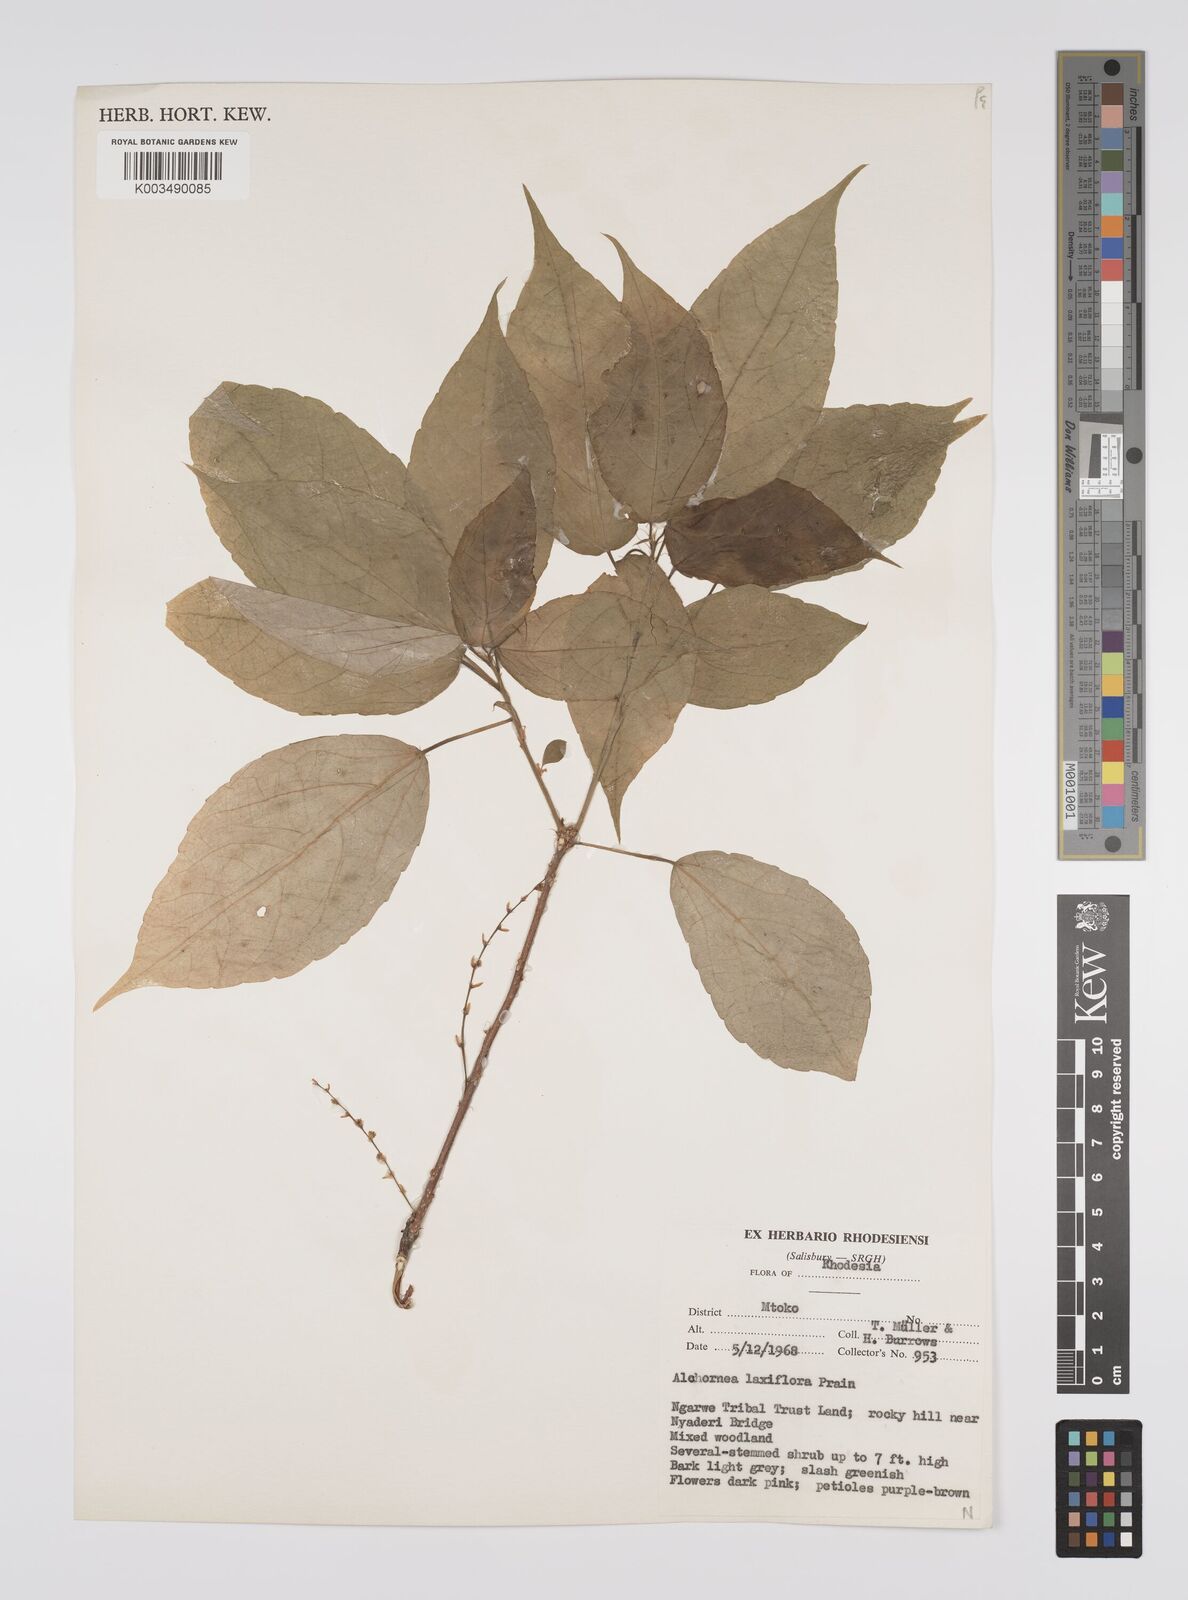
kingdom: Plantae
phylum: Tracheophyta
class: Magnoliopsida
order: Malpighiales
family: Euphorbiaceae
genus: Alchornea
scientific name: Alchornea laxiflora
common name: Lowveld bead-string
